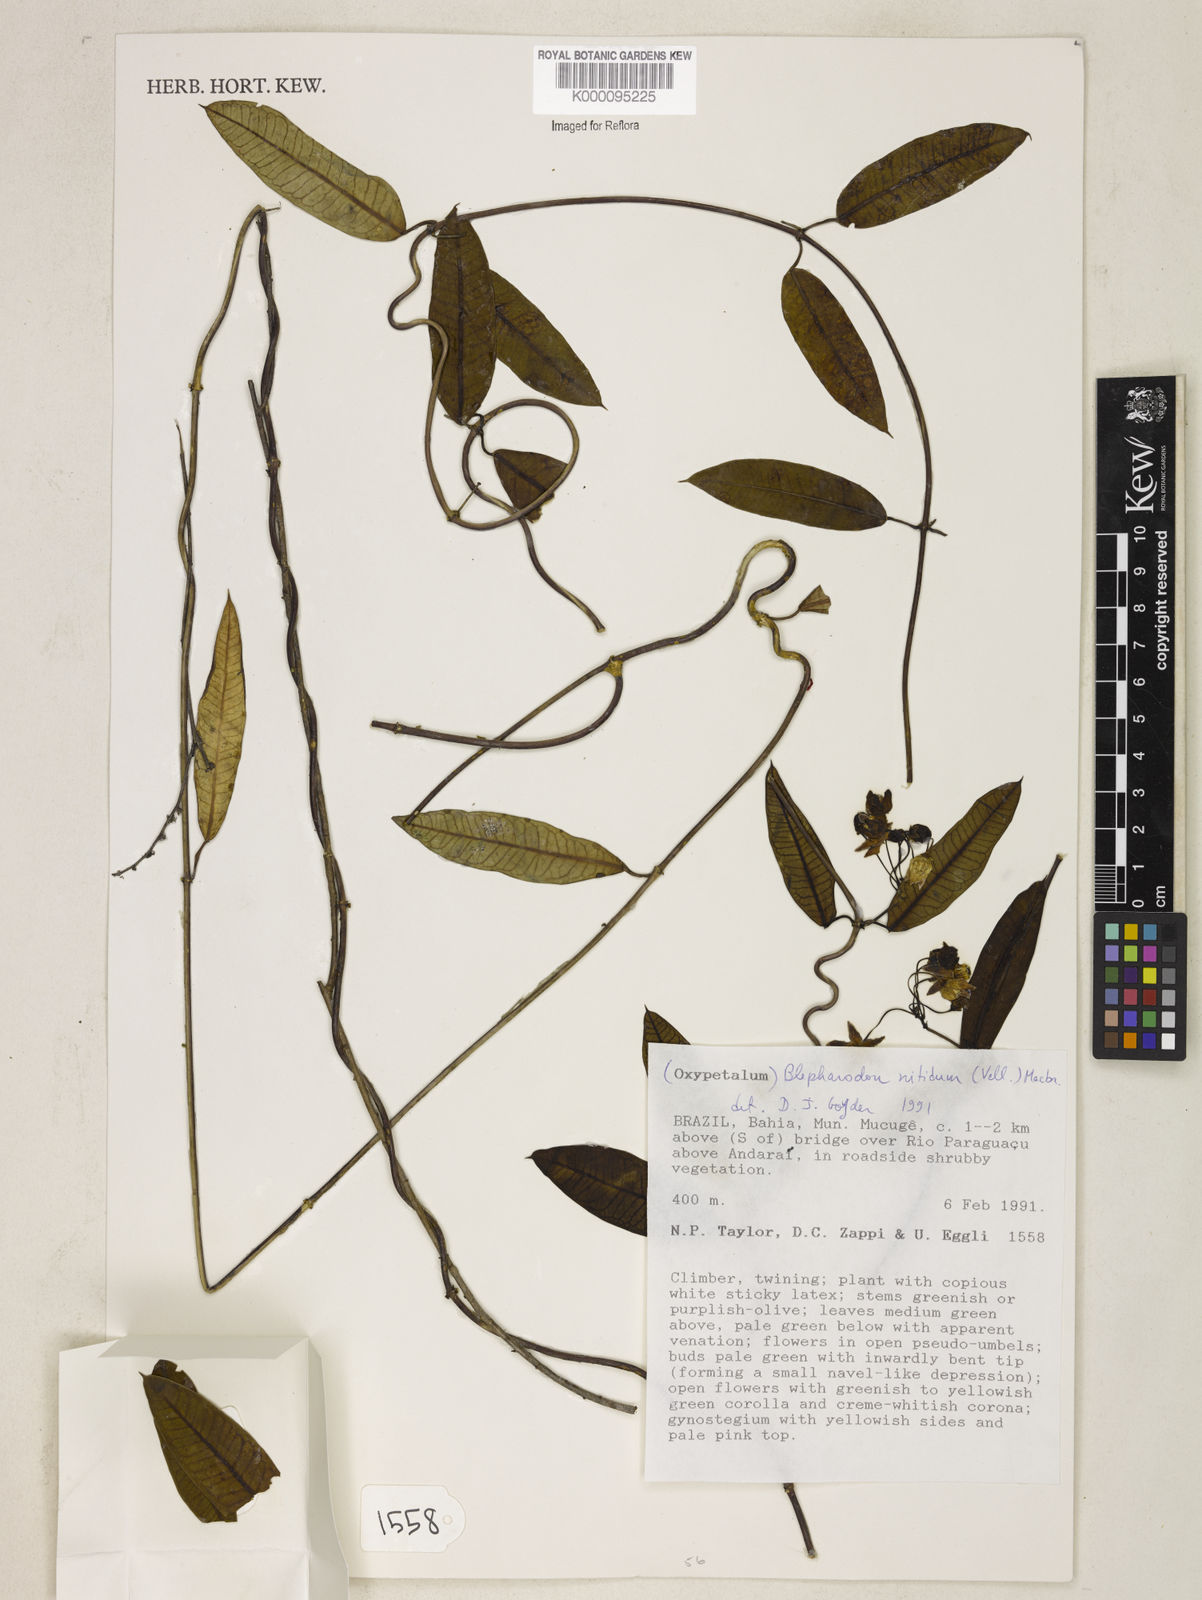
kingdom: Plantae
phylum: Tracheophyta
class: Magnoliopsida
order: Gentianales
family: Apocynaceae
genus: Blepharodon
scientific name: Blepharodon pictum
